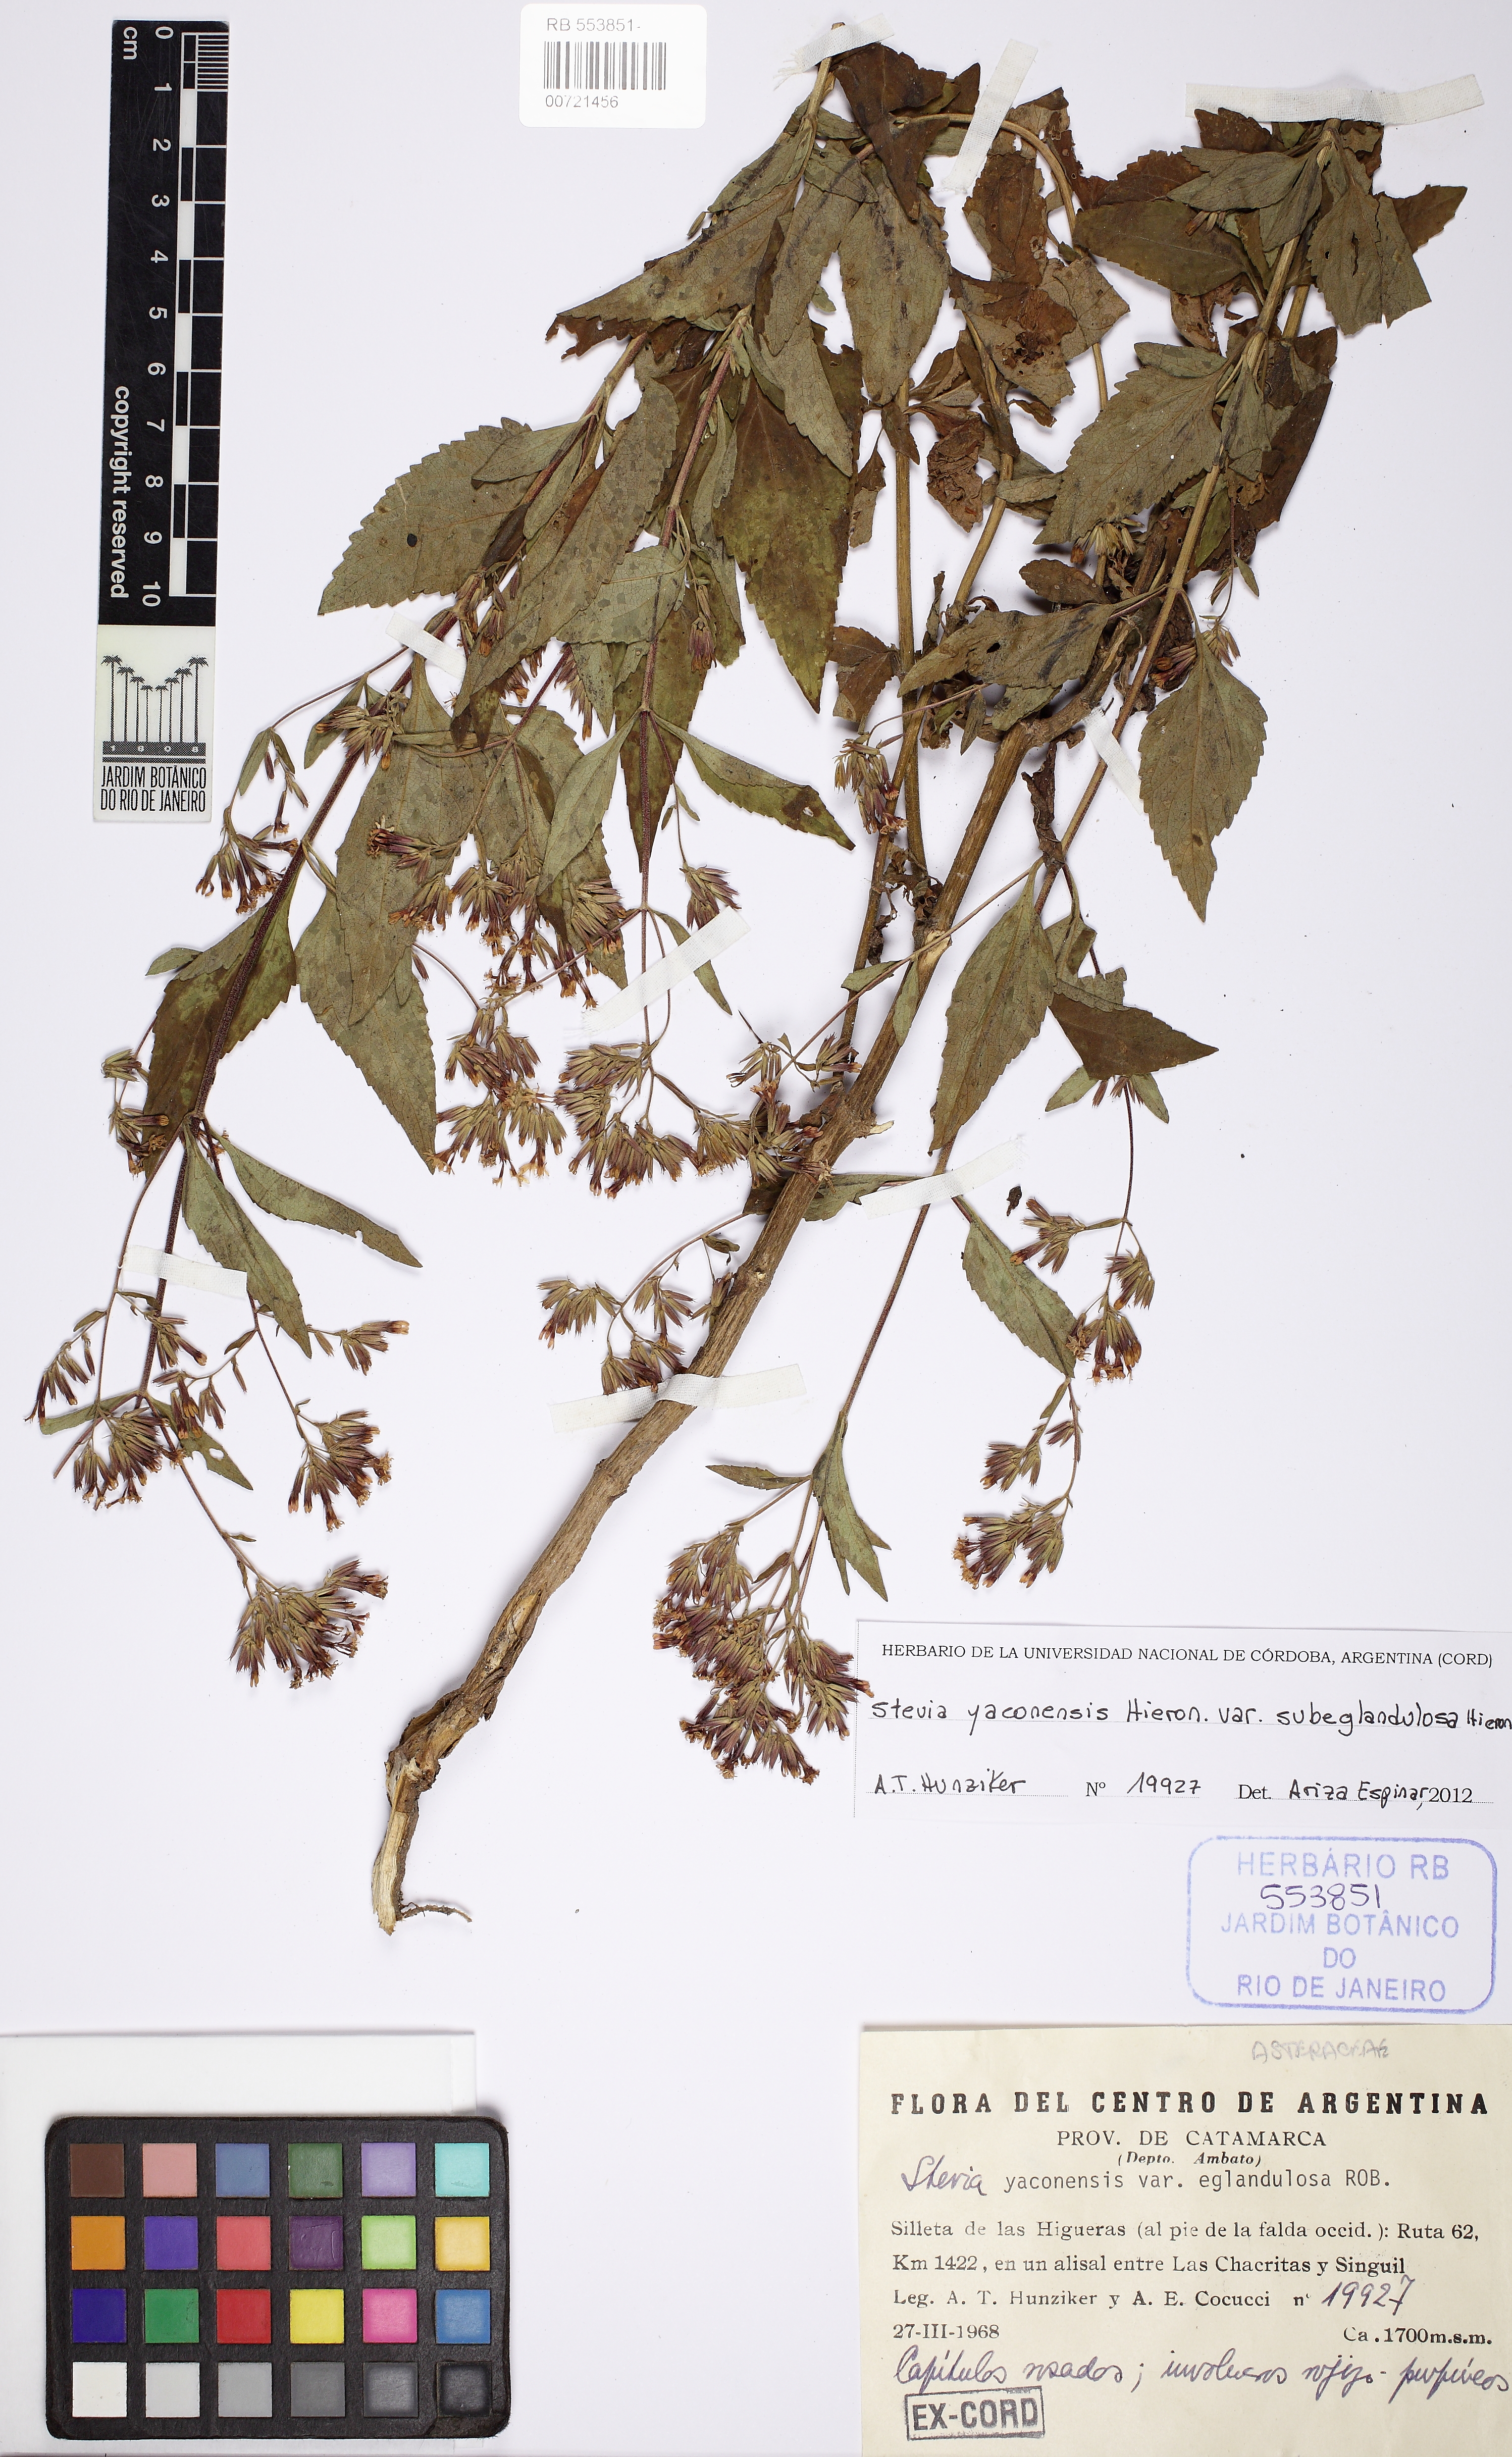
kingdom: Plantae
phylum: Tracheophyta
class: Magnoliopsida
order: Asterales
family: Asteraceae
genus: Stevia
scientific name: Stevia yaconensis
